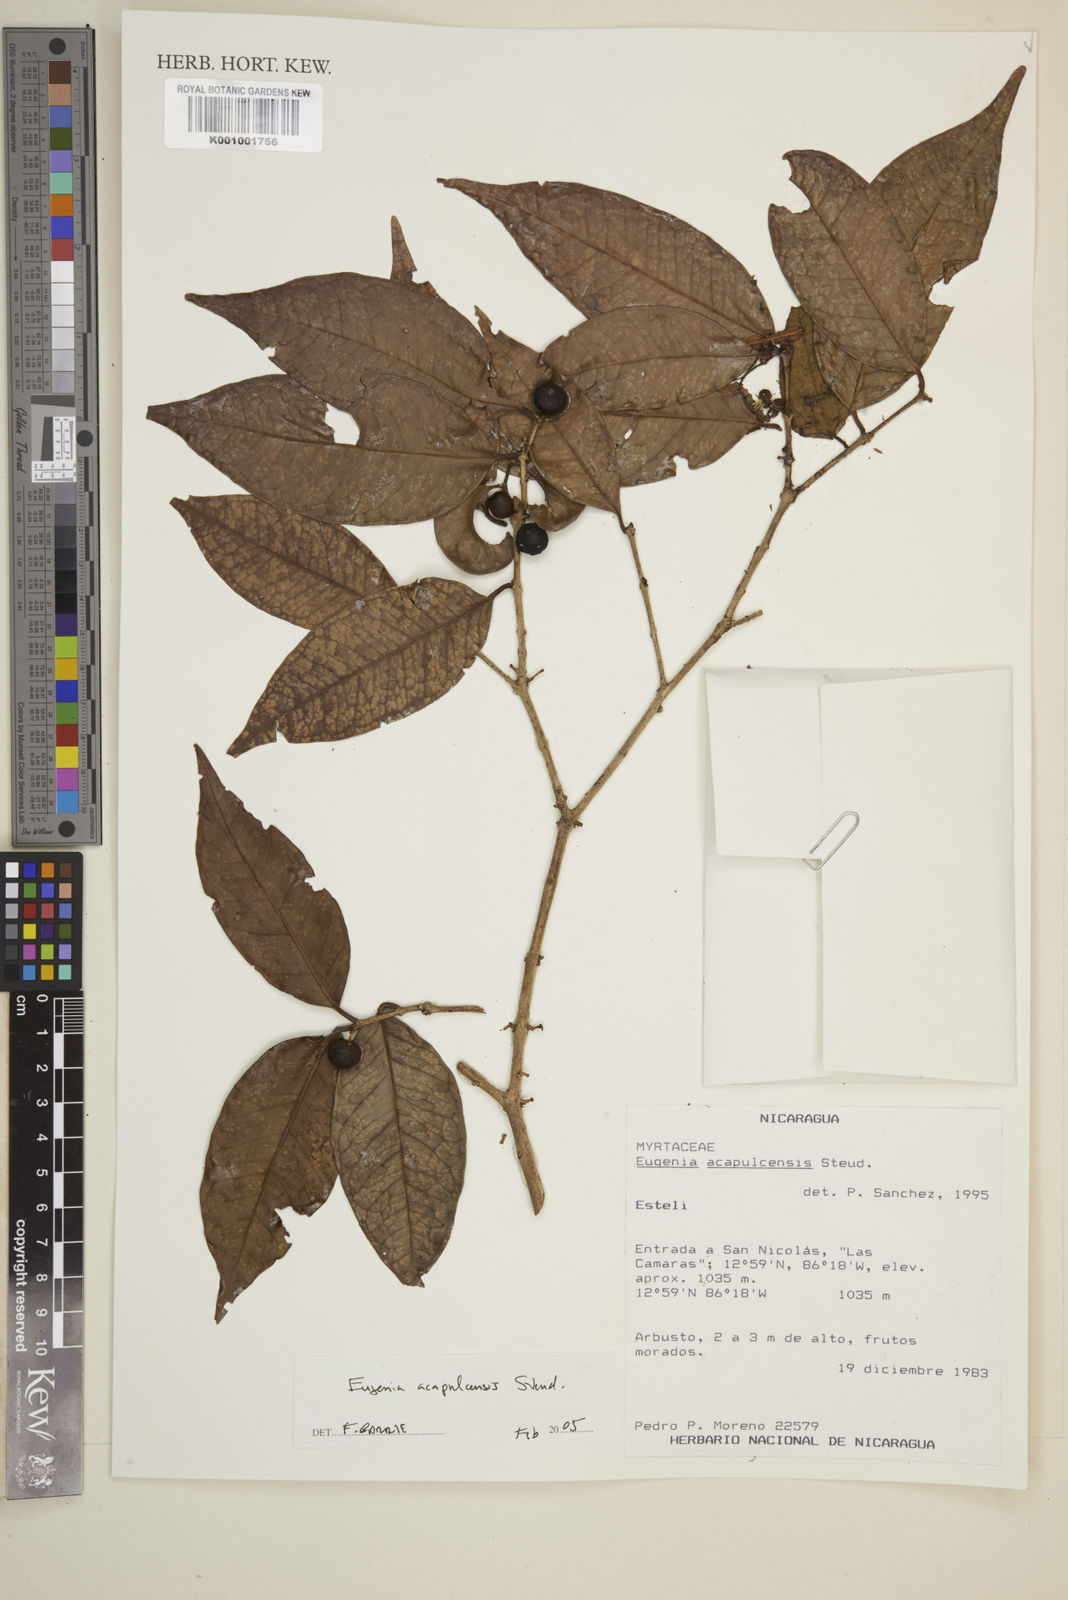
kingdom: Plantae
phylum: Tracheophyta
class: Magnoliopsida
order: Myrtales
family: Myrtaceae
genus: Eugenia
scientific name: Eugenia acapulcensis
